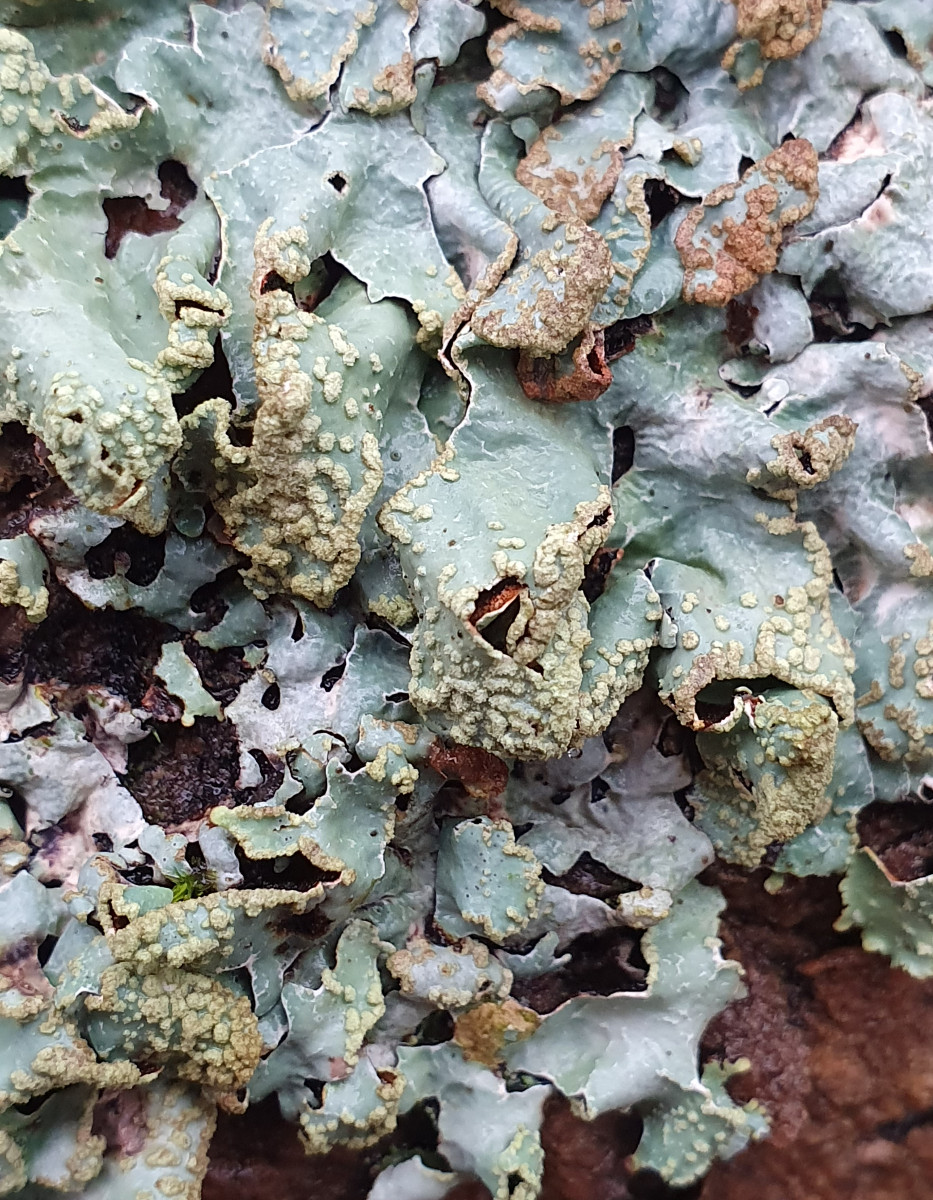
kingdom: Fungi
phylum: Ascomycota
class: Lecanoromycetes
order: Lecanorales
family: Parmeliaceae
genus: Parmelia
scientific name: Parmelia sulcata
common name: rynket skållav
